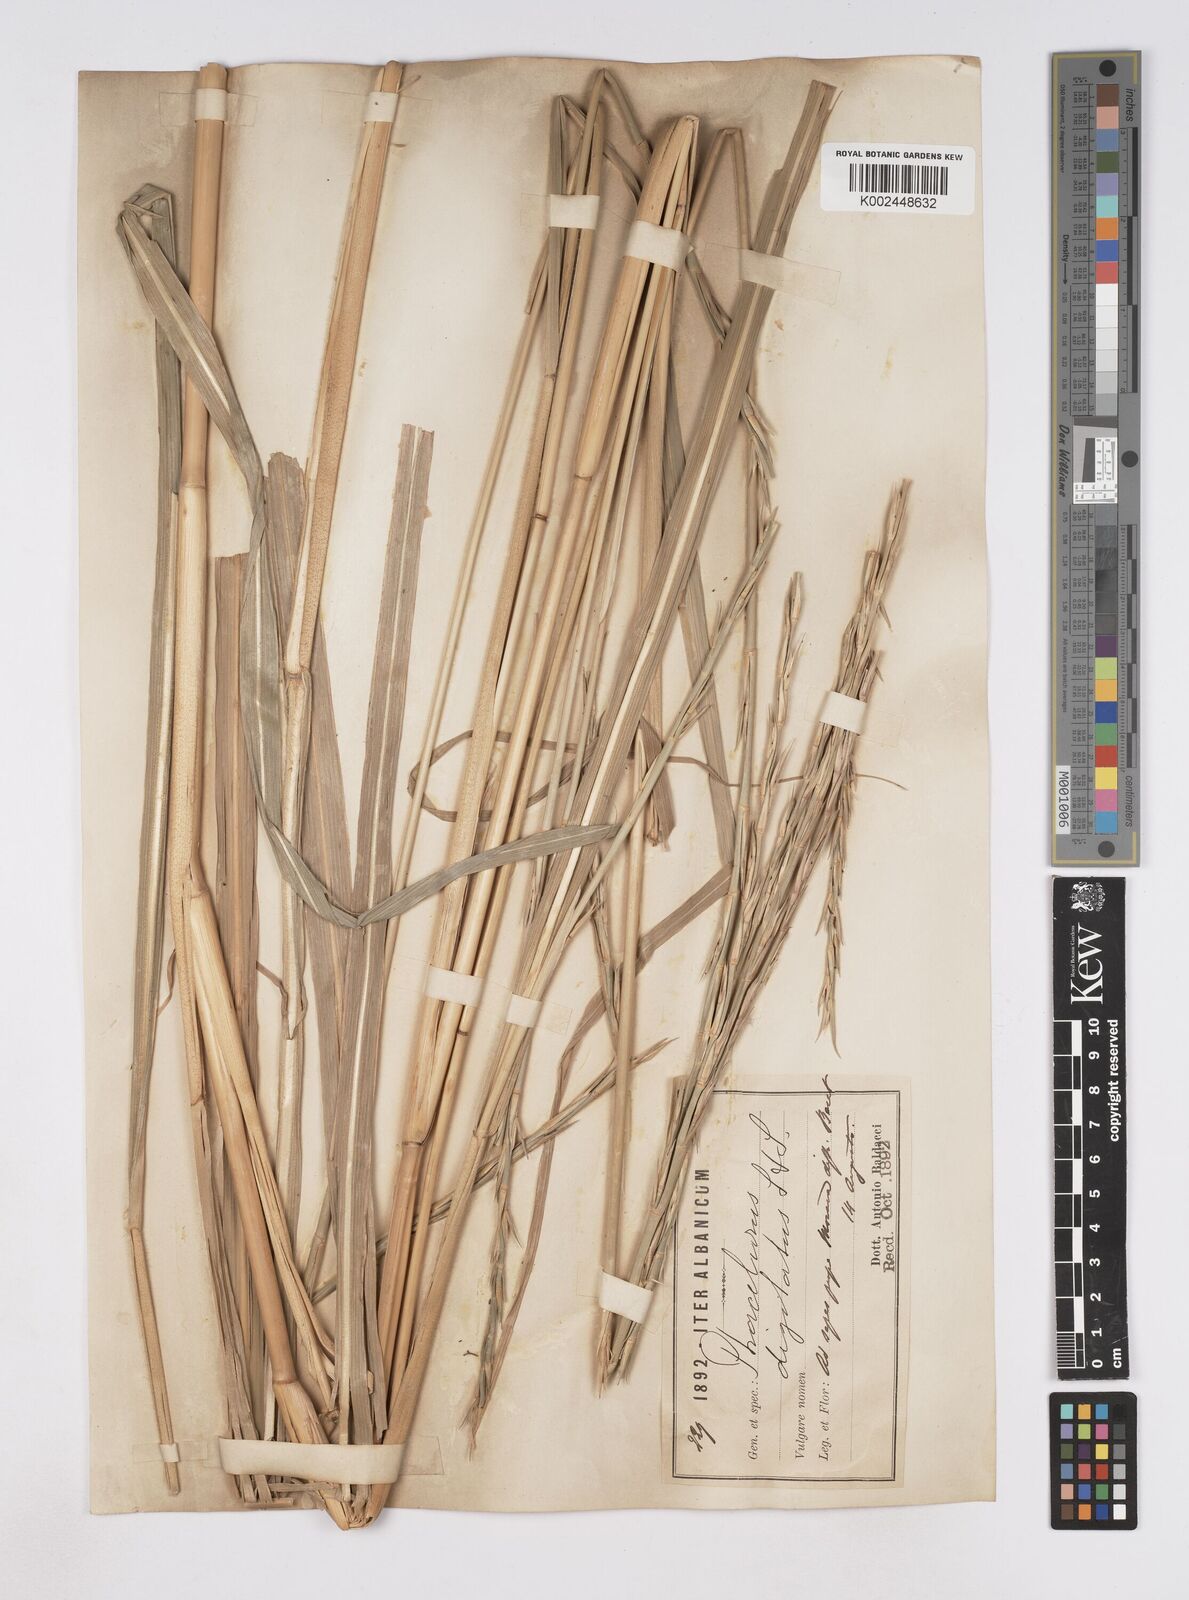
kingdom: Plantae
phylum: Tracheophyta
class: Liliopsida
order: Poales
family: Poaceae
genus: Phacelurus
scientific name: Phacelurus digitatus
